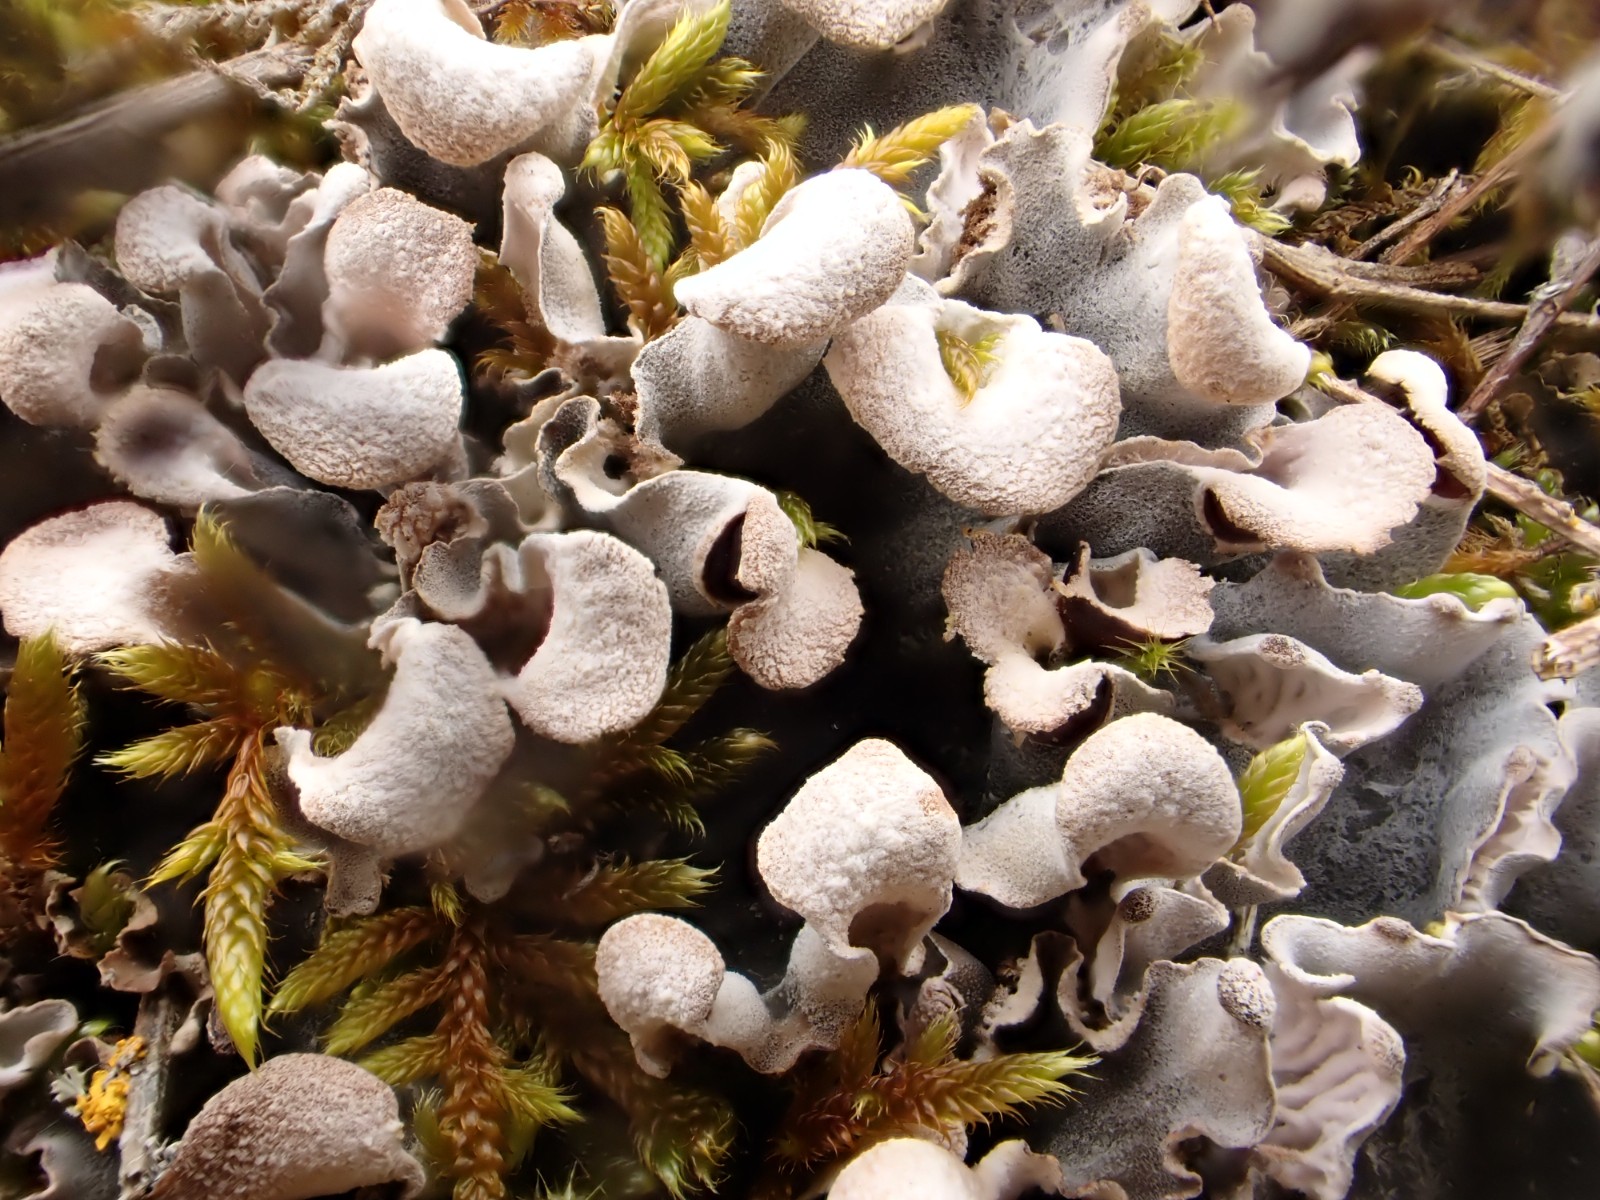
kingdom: Fungi
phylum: Ascomycota
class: Lecanoromycetes
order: Peltigerales
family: Peltigeraceae
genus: Peltigera
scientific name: Peltigera canina
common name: hunde-skjoldlav
